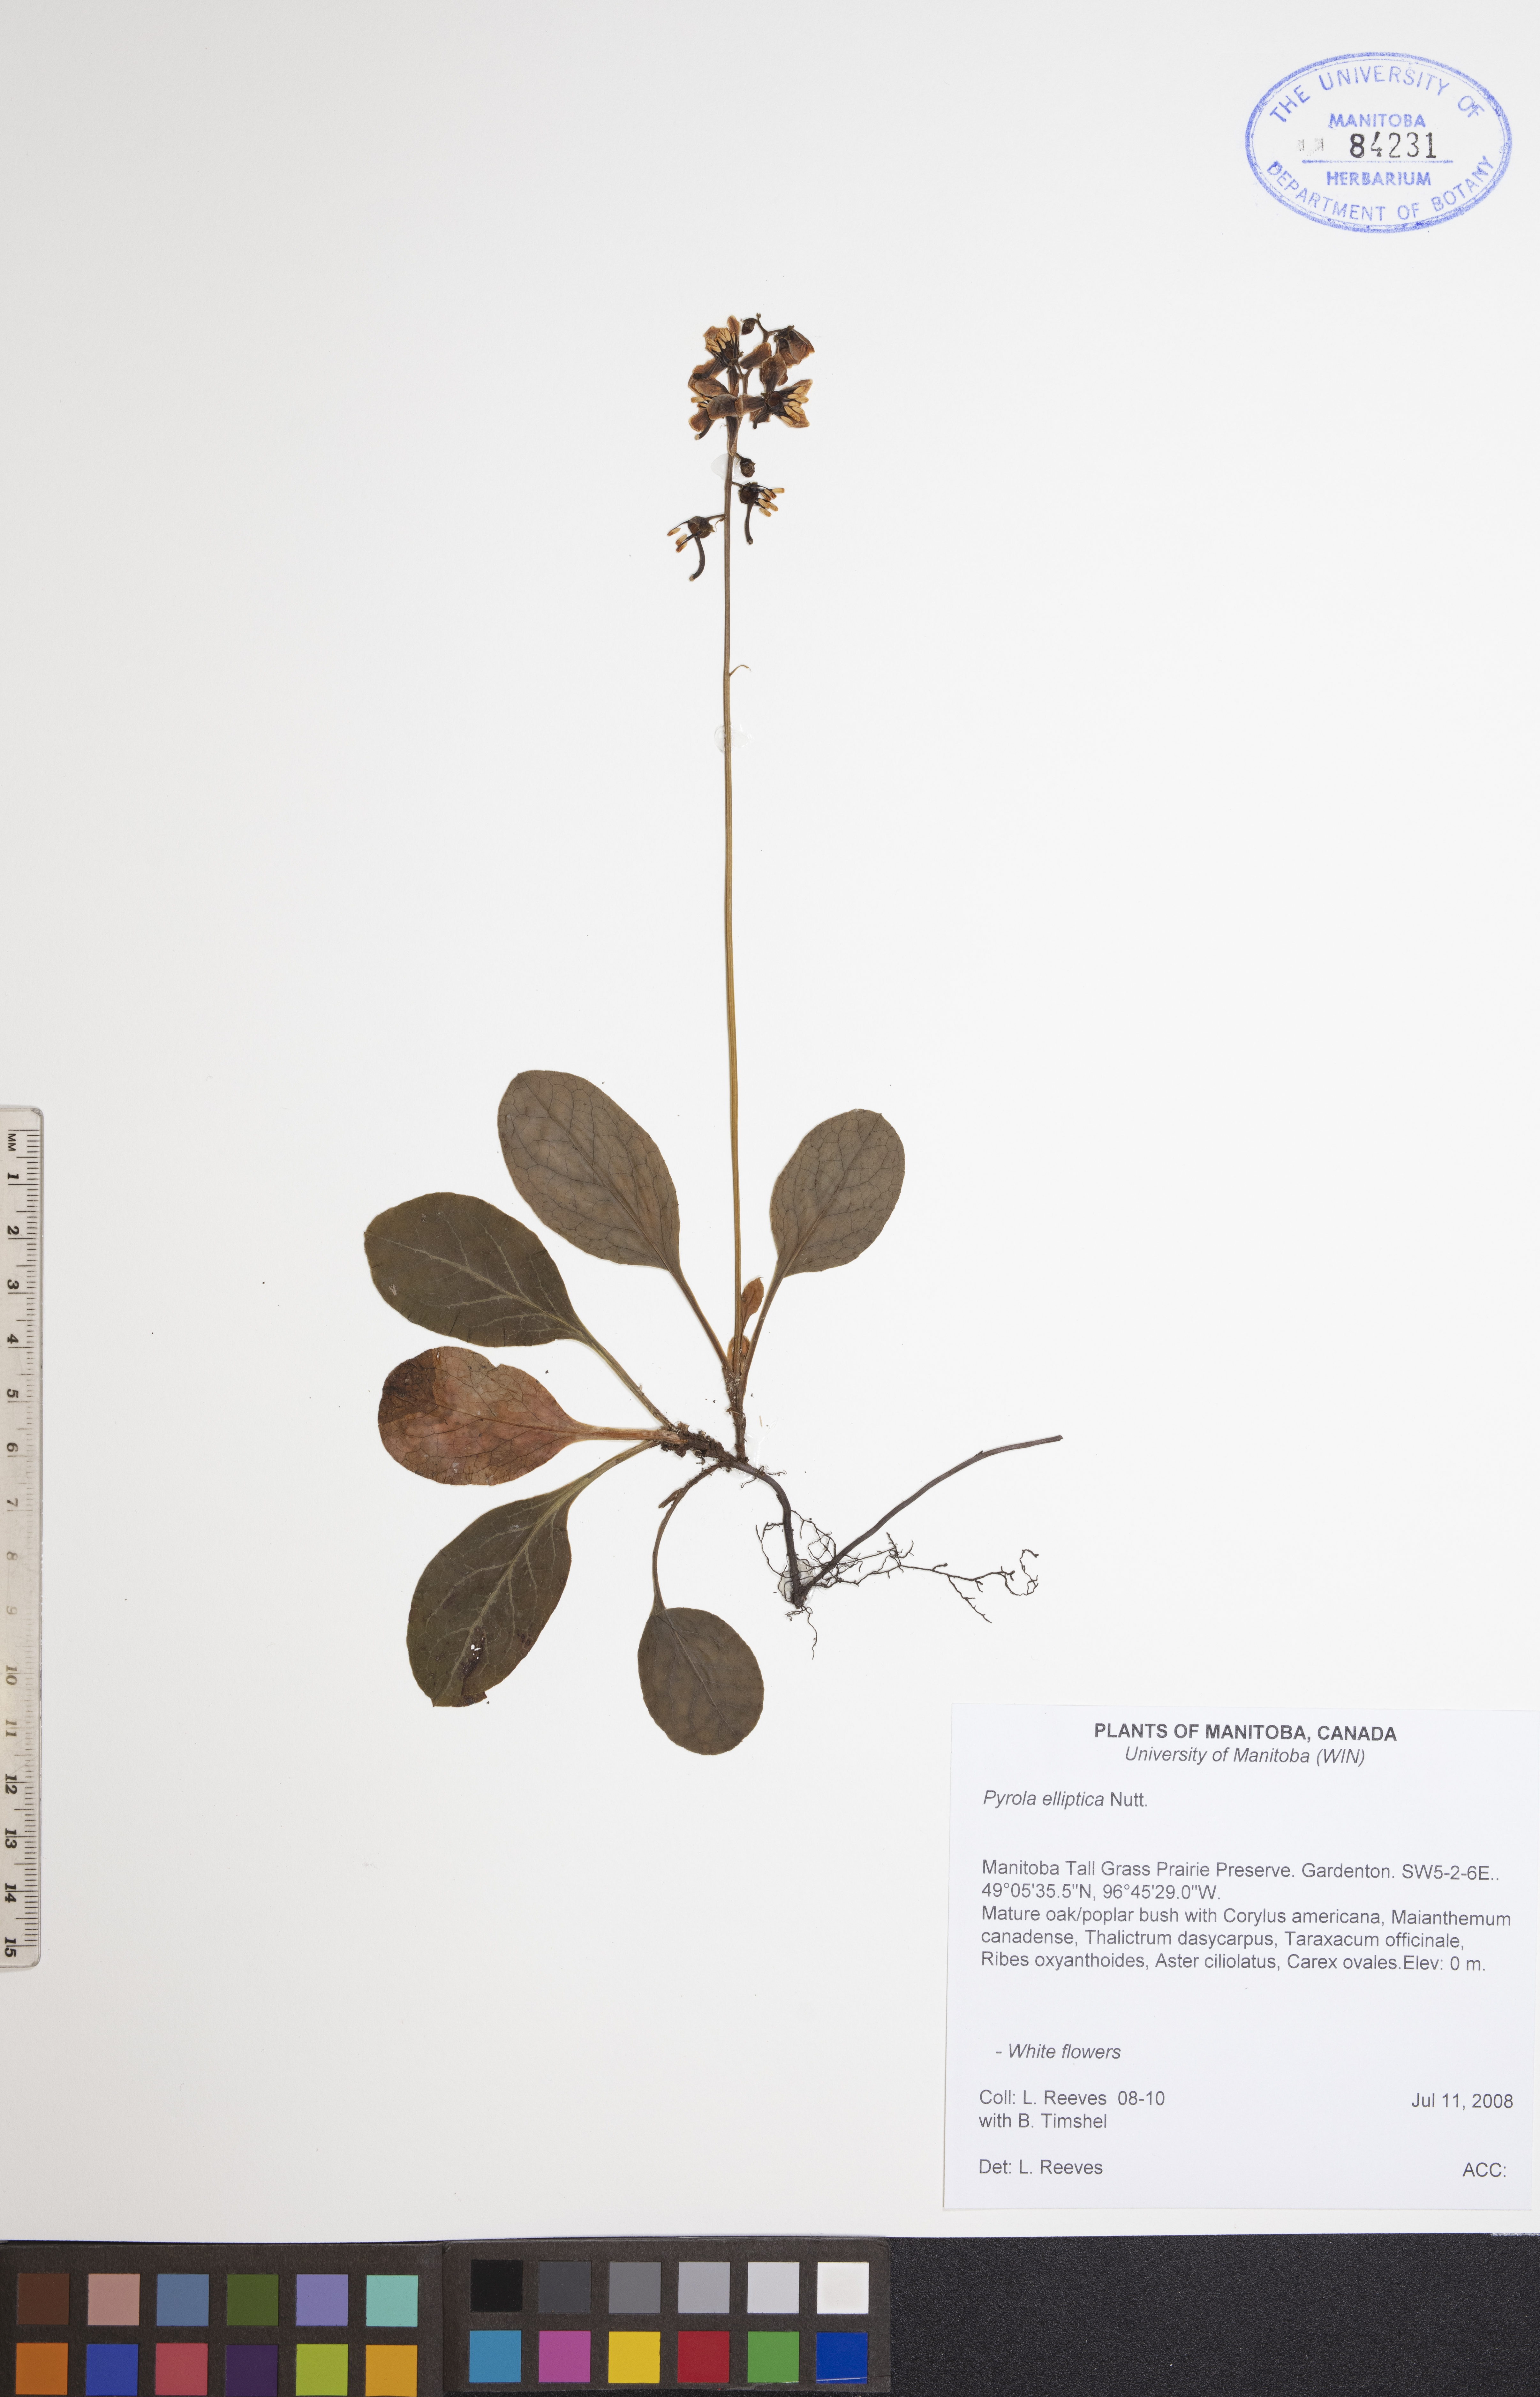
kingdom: Plantae
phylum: Tracheophyta
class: Magnoliopsida
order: Ericales
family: Ericaceae
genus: Pyrola
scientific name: Pyrola elliptica
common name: Shinleaf
